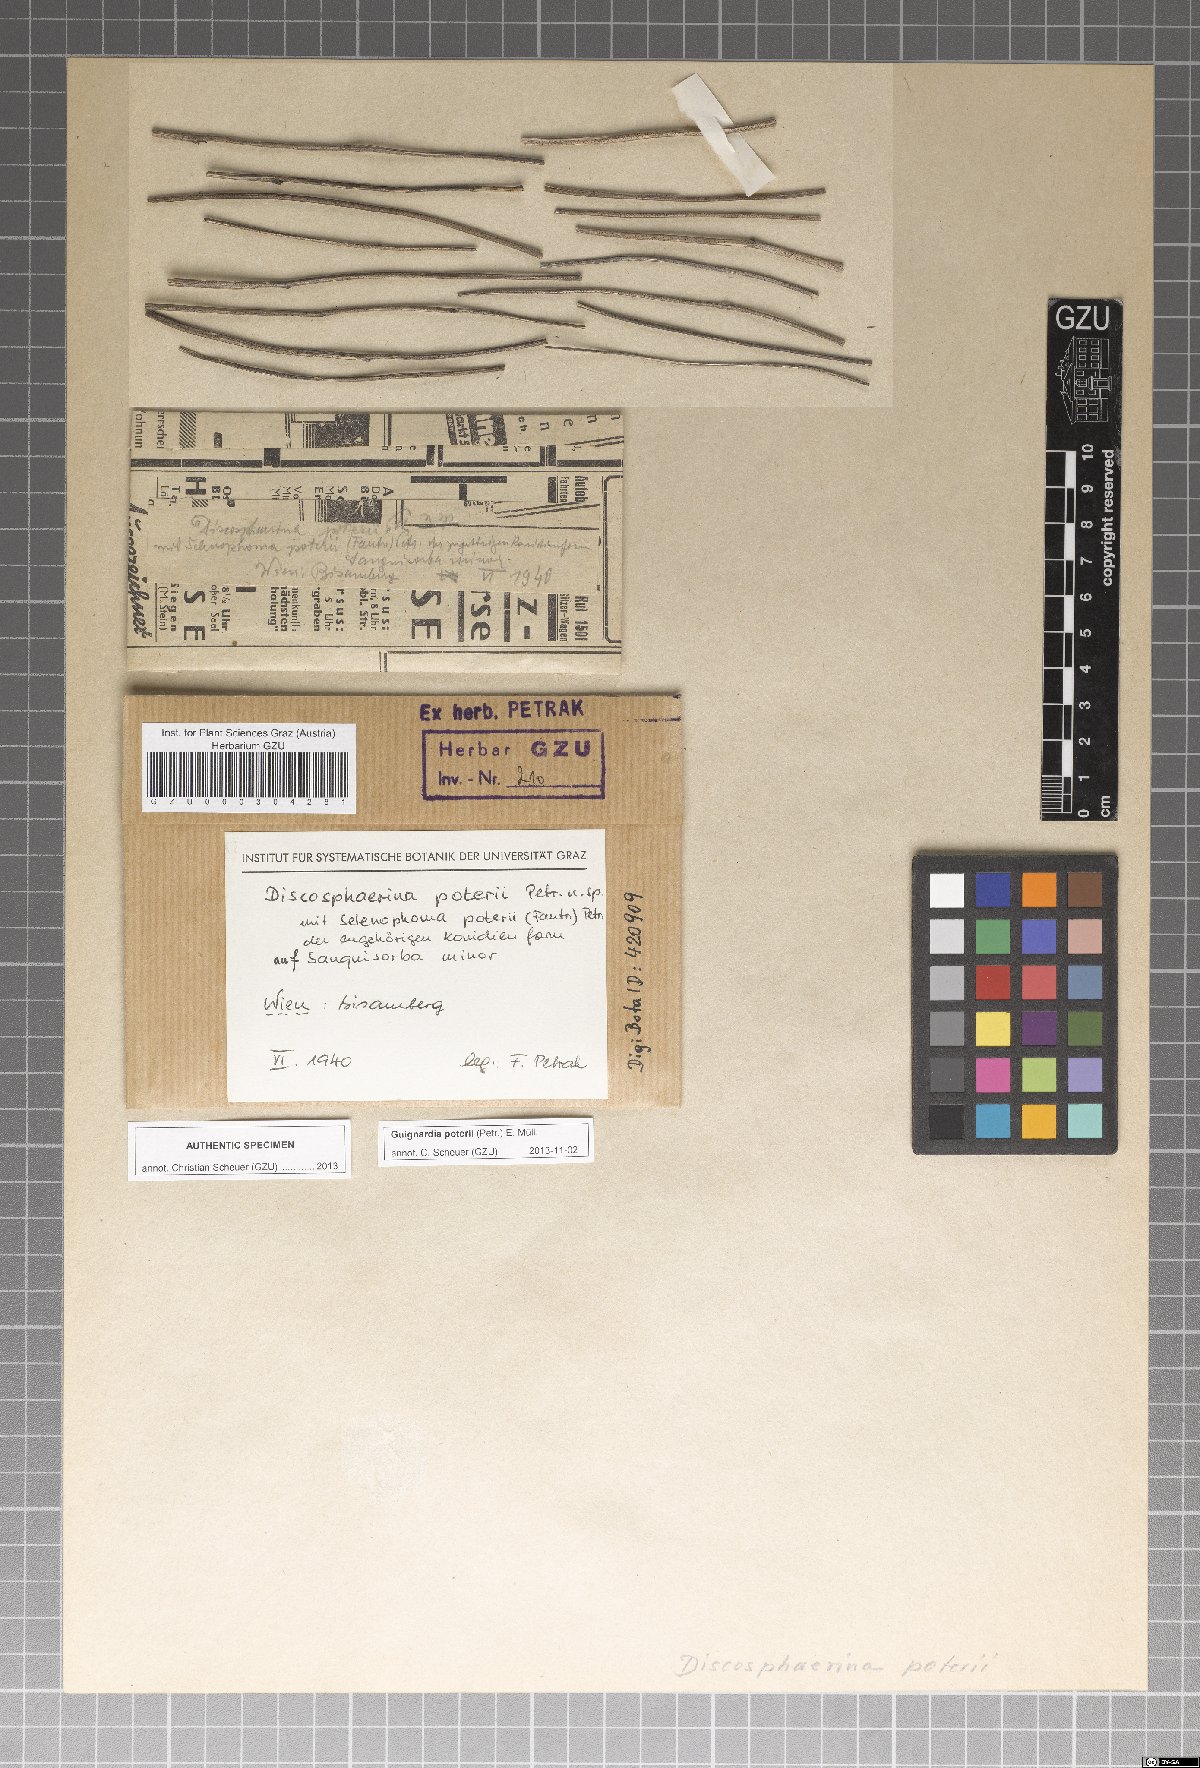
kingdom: Fungi
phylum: Ascomycota
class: Dothideomycetes
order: Botryosphaeriales
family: Phyllostictaceae
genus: Guignardia
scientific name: Guignardia poterii
